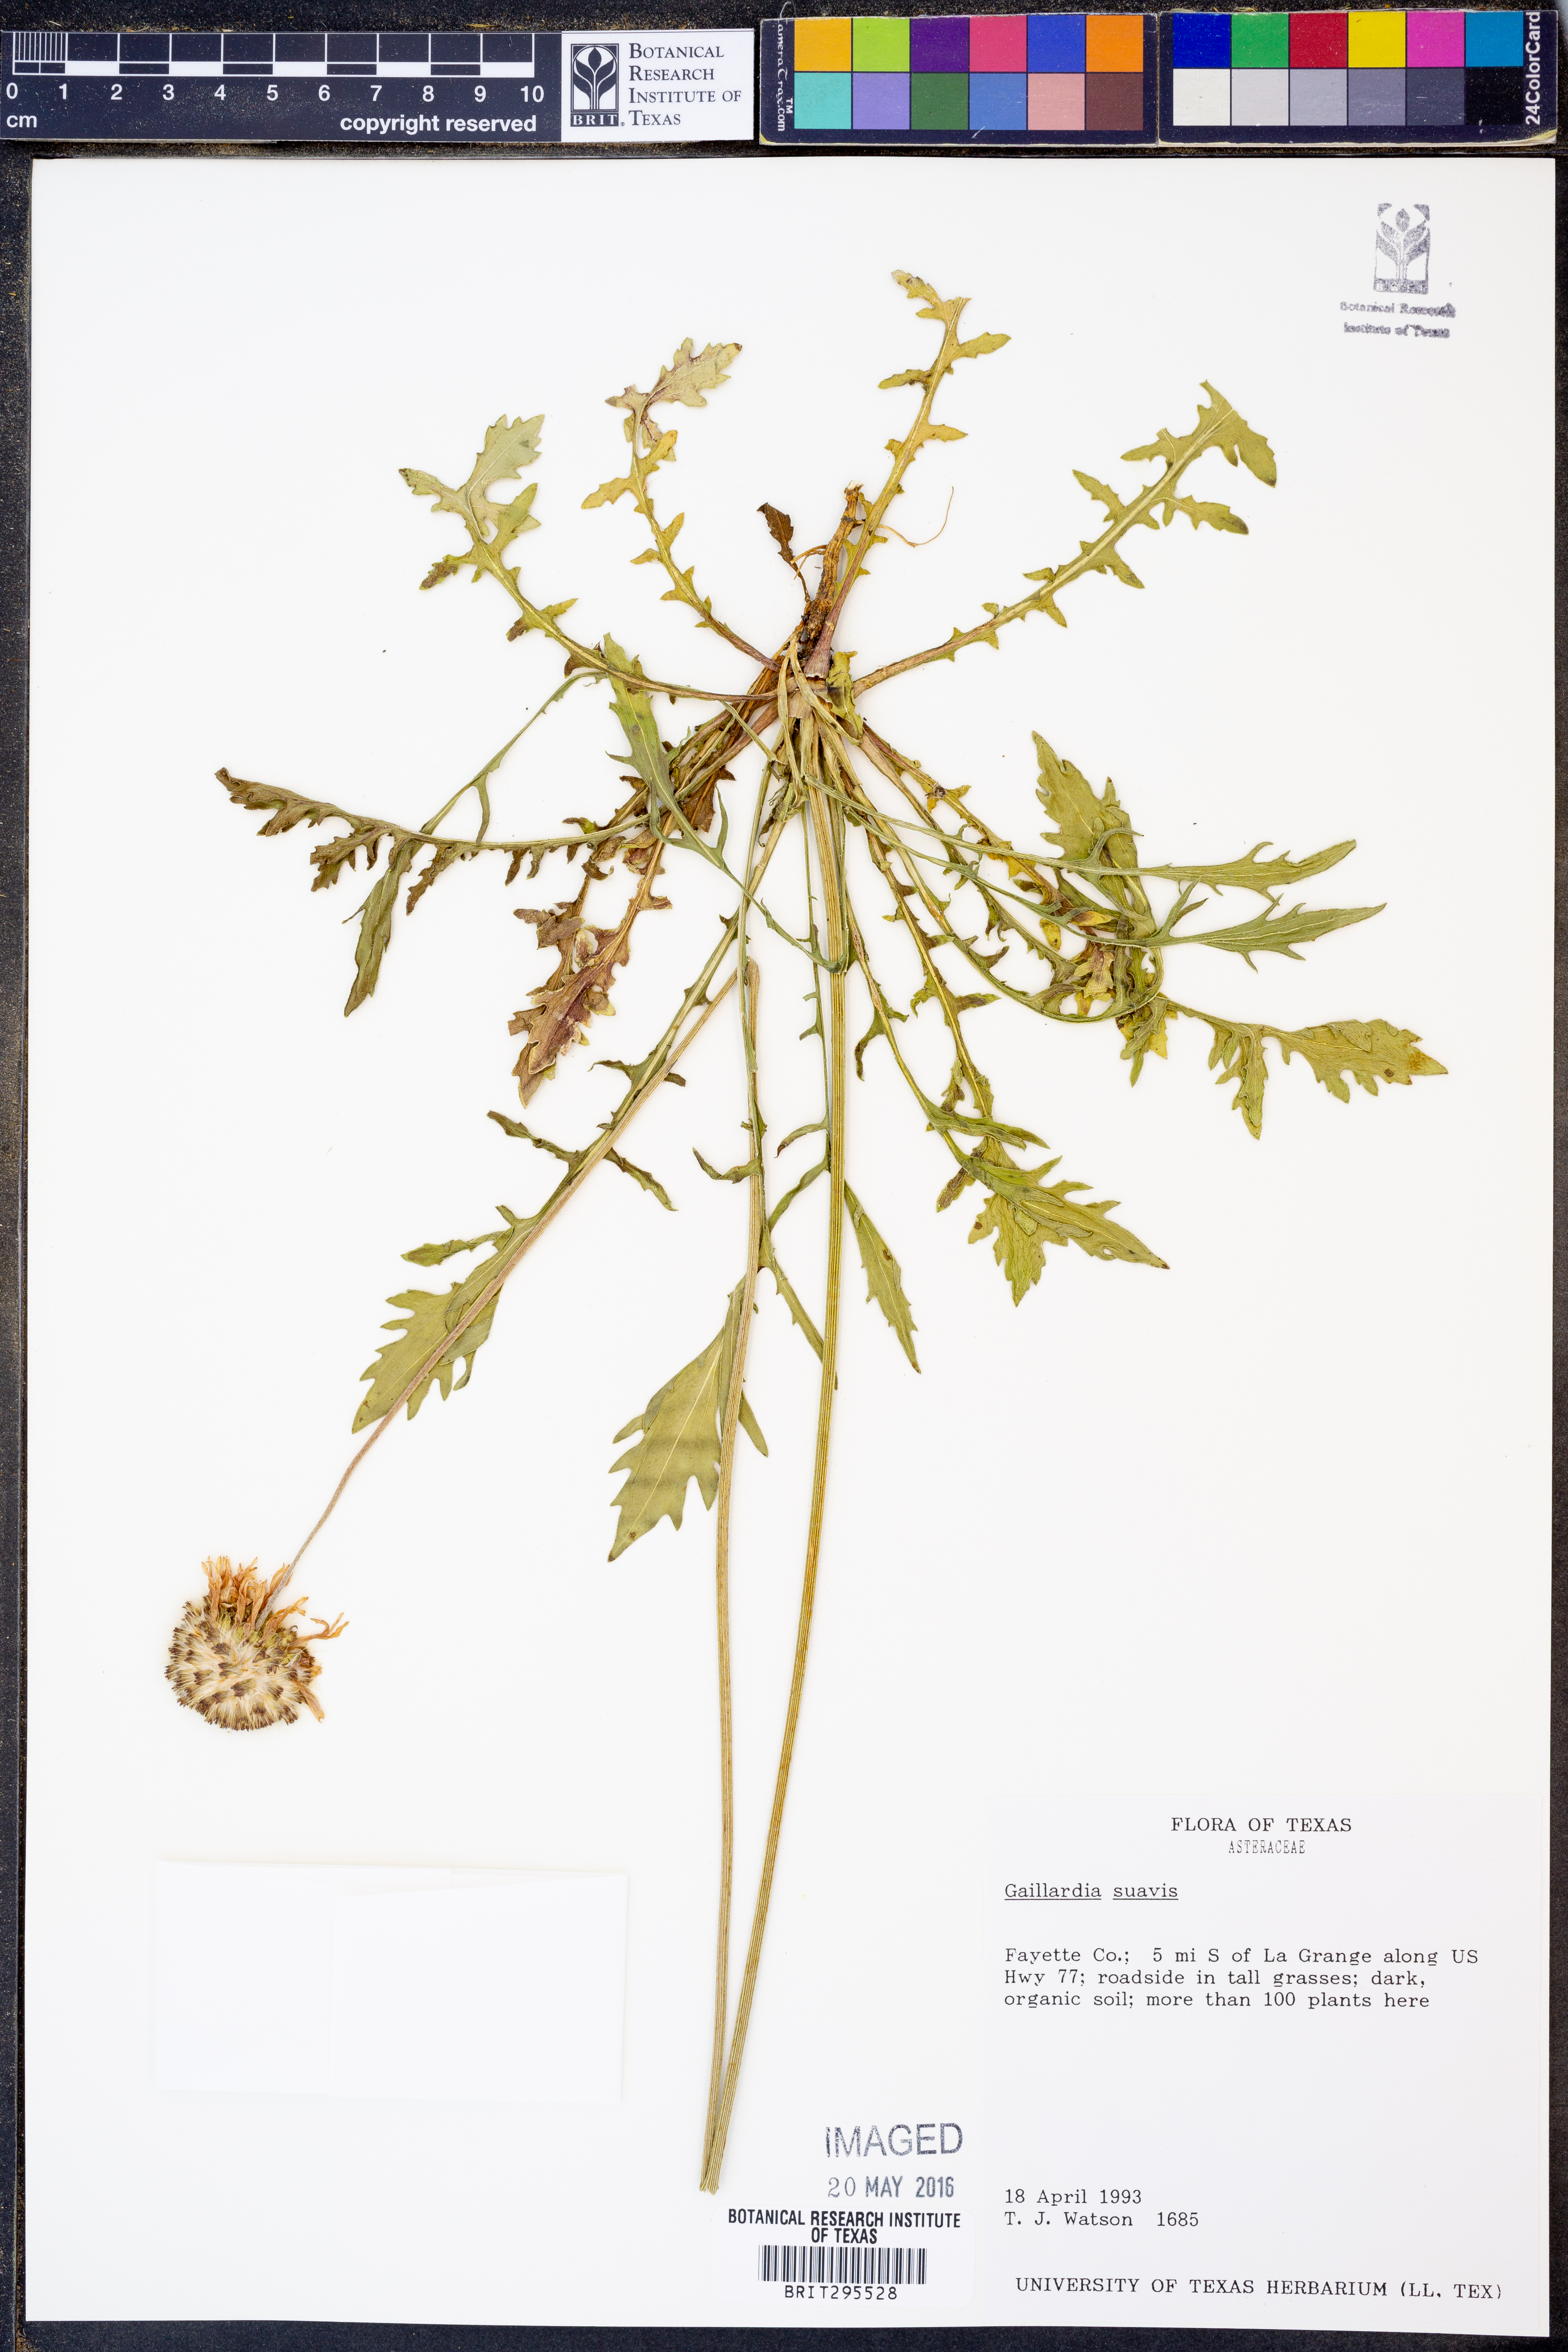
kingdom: Plantae
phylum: Tracheophyta
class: Magnoliopsida
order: Asterales
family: Asteraceae
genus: Gaillardia
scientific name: Gaillardia suavis
